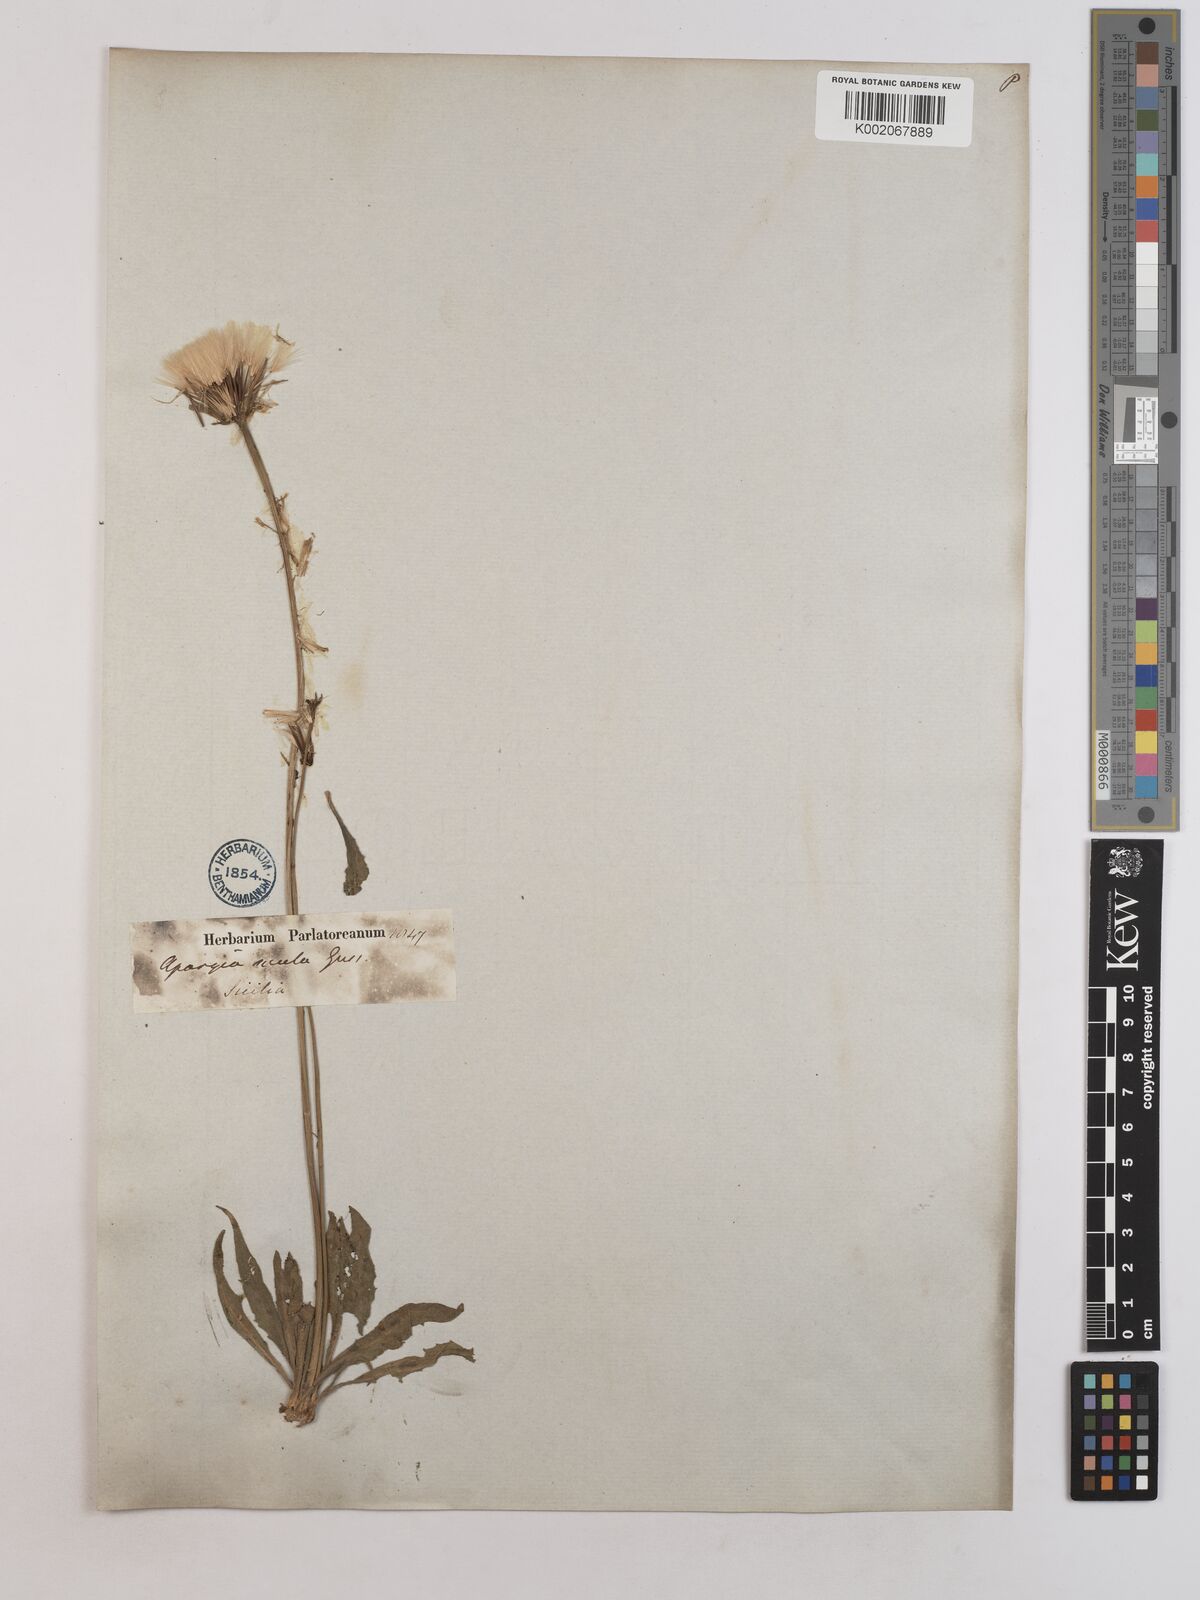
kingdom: Plantae
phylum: Tracheophyta
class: Magnoliopsida
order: Asterales
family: Asteraceae
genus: Leontodon
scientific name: Leontodon siculus
